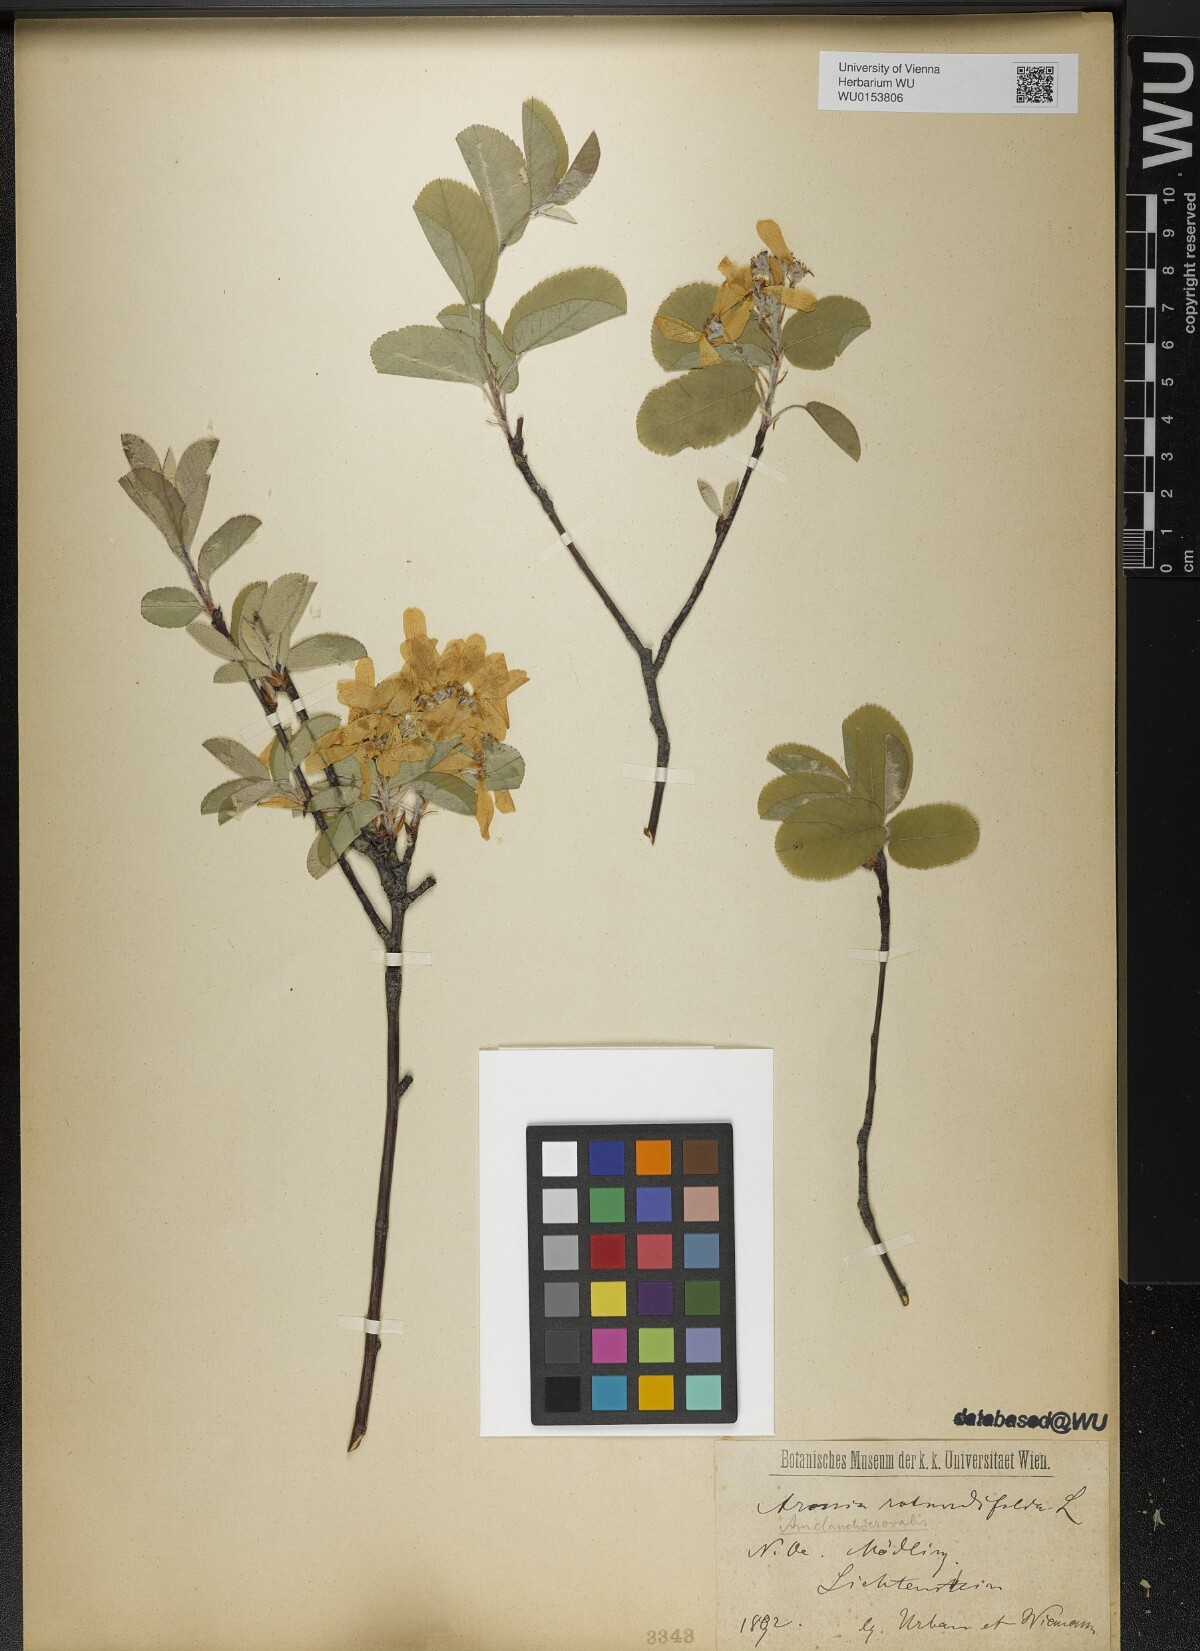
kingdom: Plantae
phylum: Tracheophyta
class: Magnoliopsida
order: Rosales
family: Rosaceae
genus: Amelanchier
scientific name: Amelanchier ovalis
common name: Serviceberry
